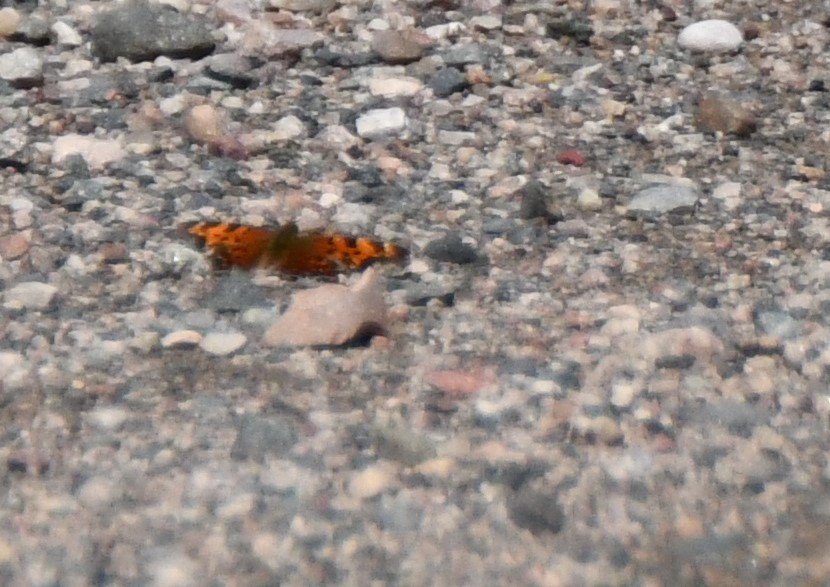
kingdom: Animalia
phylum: Arthropoda
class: Insecta
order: Lepidoptera
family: Nymphalidae
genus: Polygonia
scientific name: Polygonia faunus
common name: Green Comma
